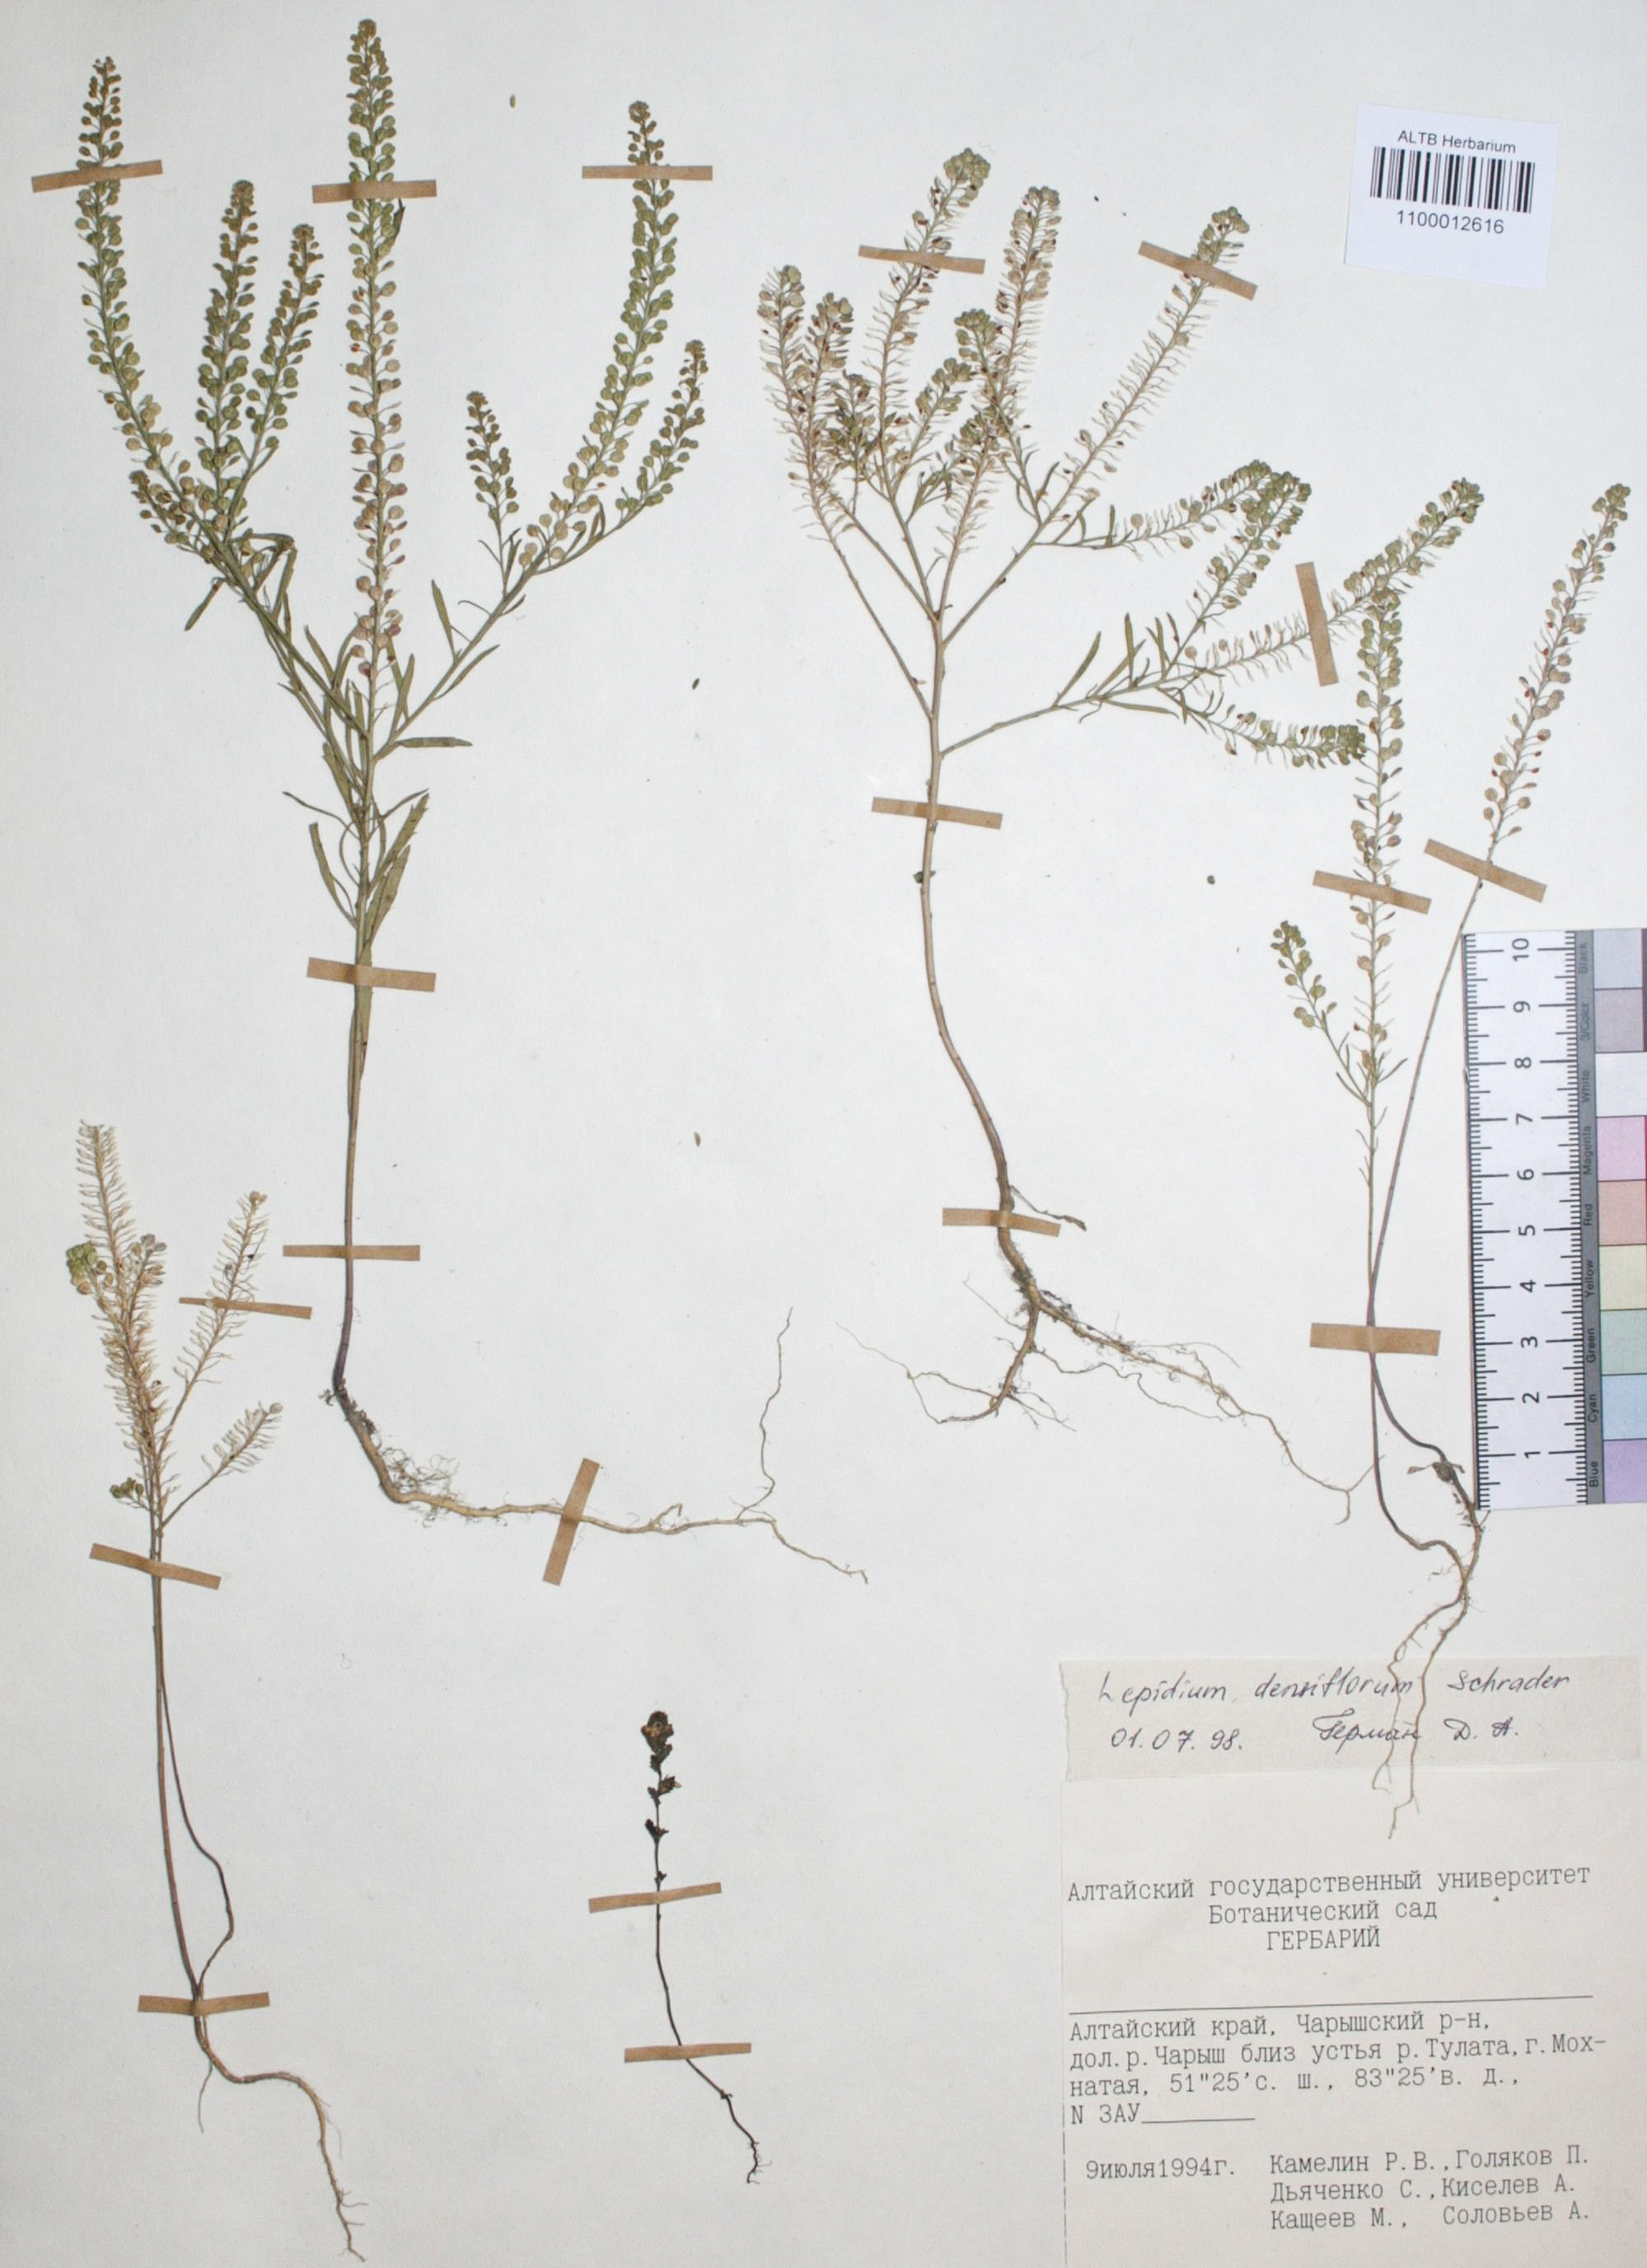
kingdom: Plantae
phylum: Tracheophyta
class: Magnoliopsida
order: Brassicales
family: Brassicaceae
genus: Lepidium
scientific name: Lepidium densiflorum
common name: Miner's pepperwort
